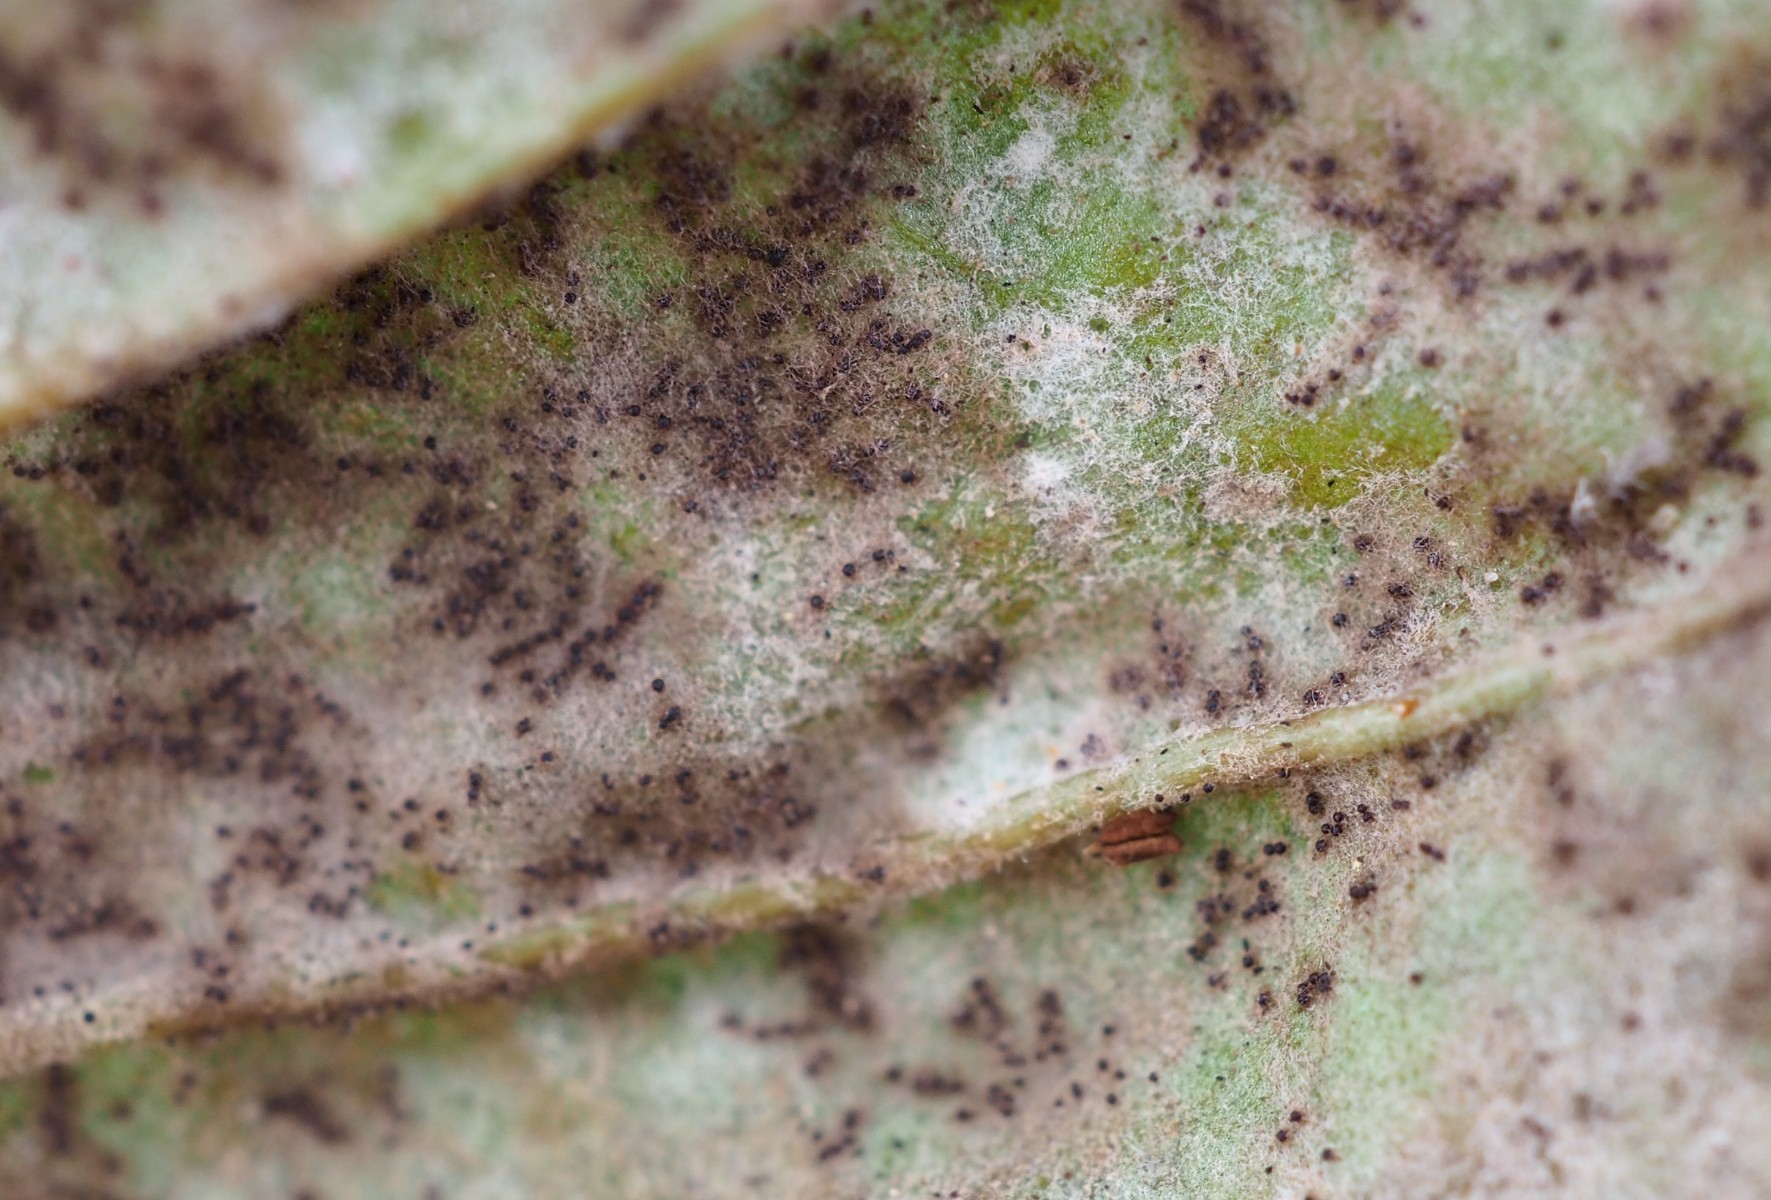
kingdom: Fungi
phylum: Ascomycota
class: Leotiomycetes
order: Helotiales
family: Erysiphaceae
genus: Golovinomyces
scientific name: Golovinomyces sordidus
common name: Plantain mildew
